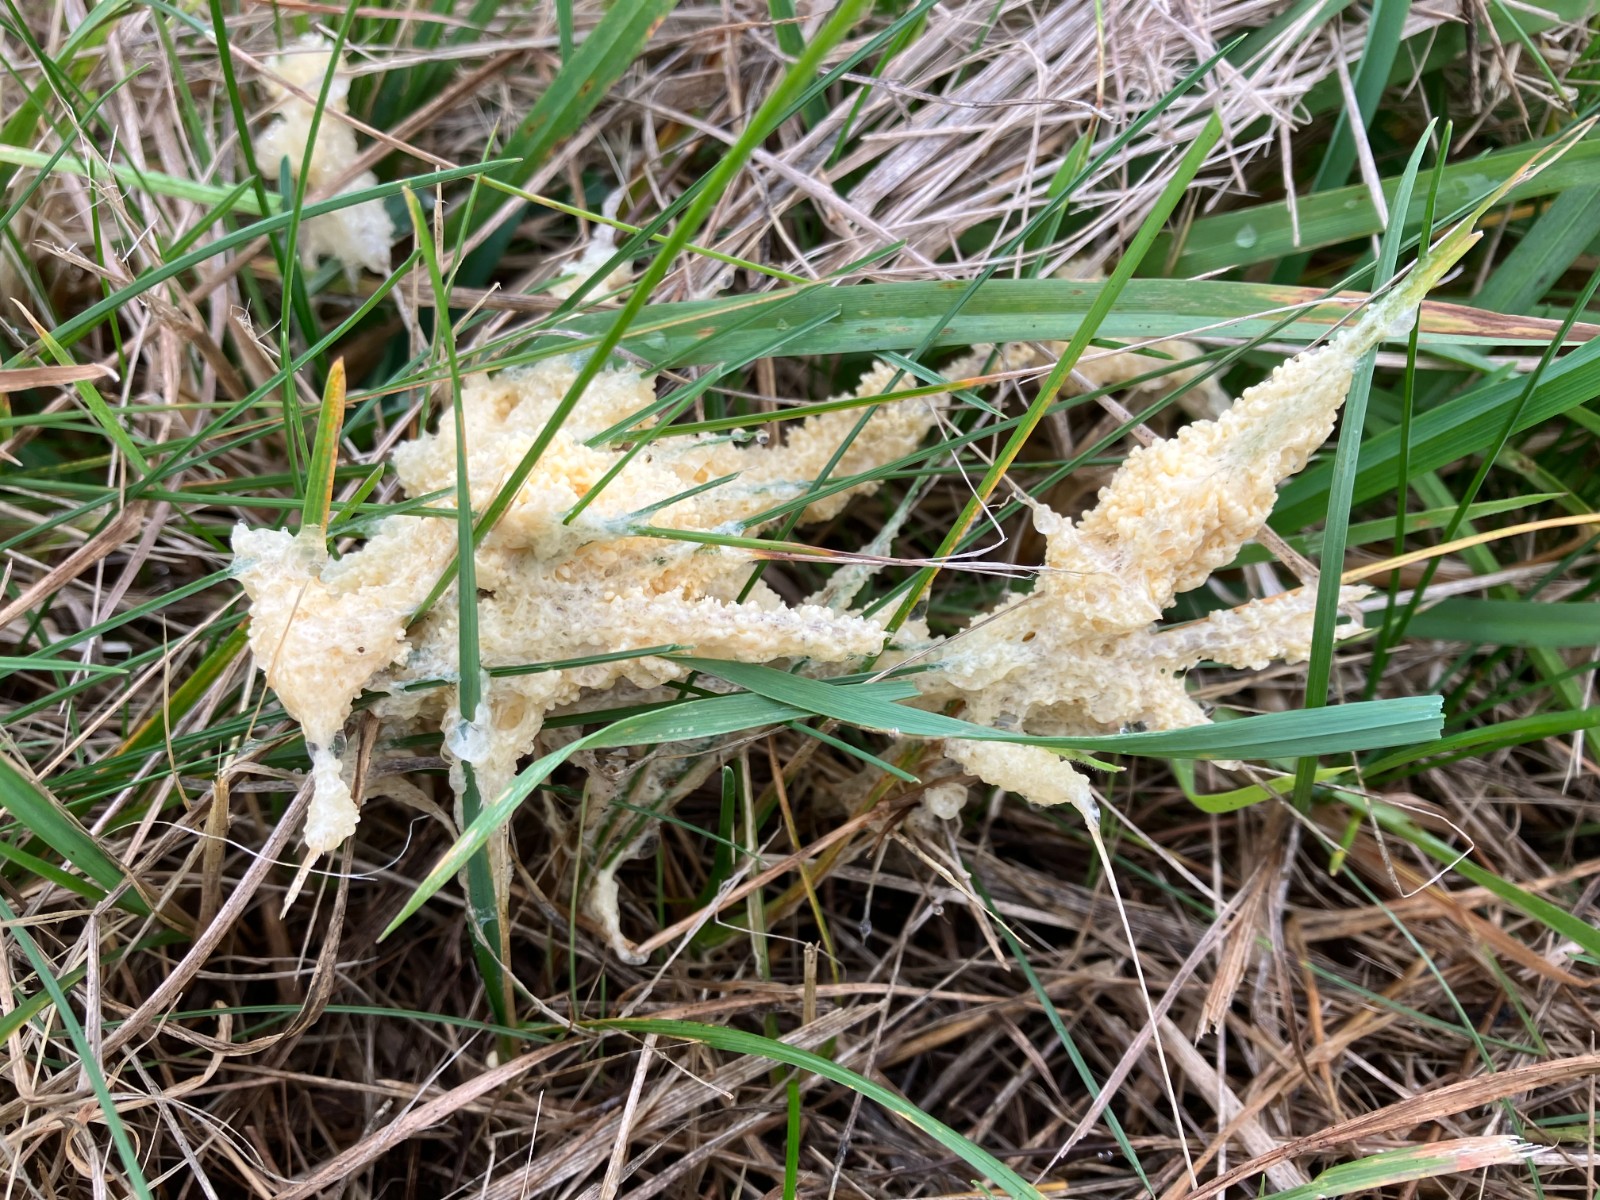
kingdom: Protozoa
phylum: Mycetozoa
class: Myxomycetes
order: Physarales
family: Physaraceae
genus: Didymium
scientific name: Didymium
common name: urteskum
